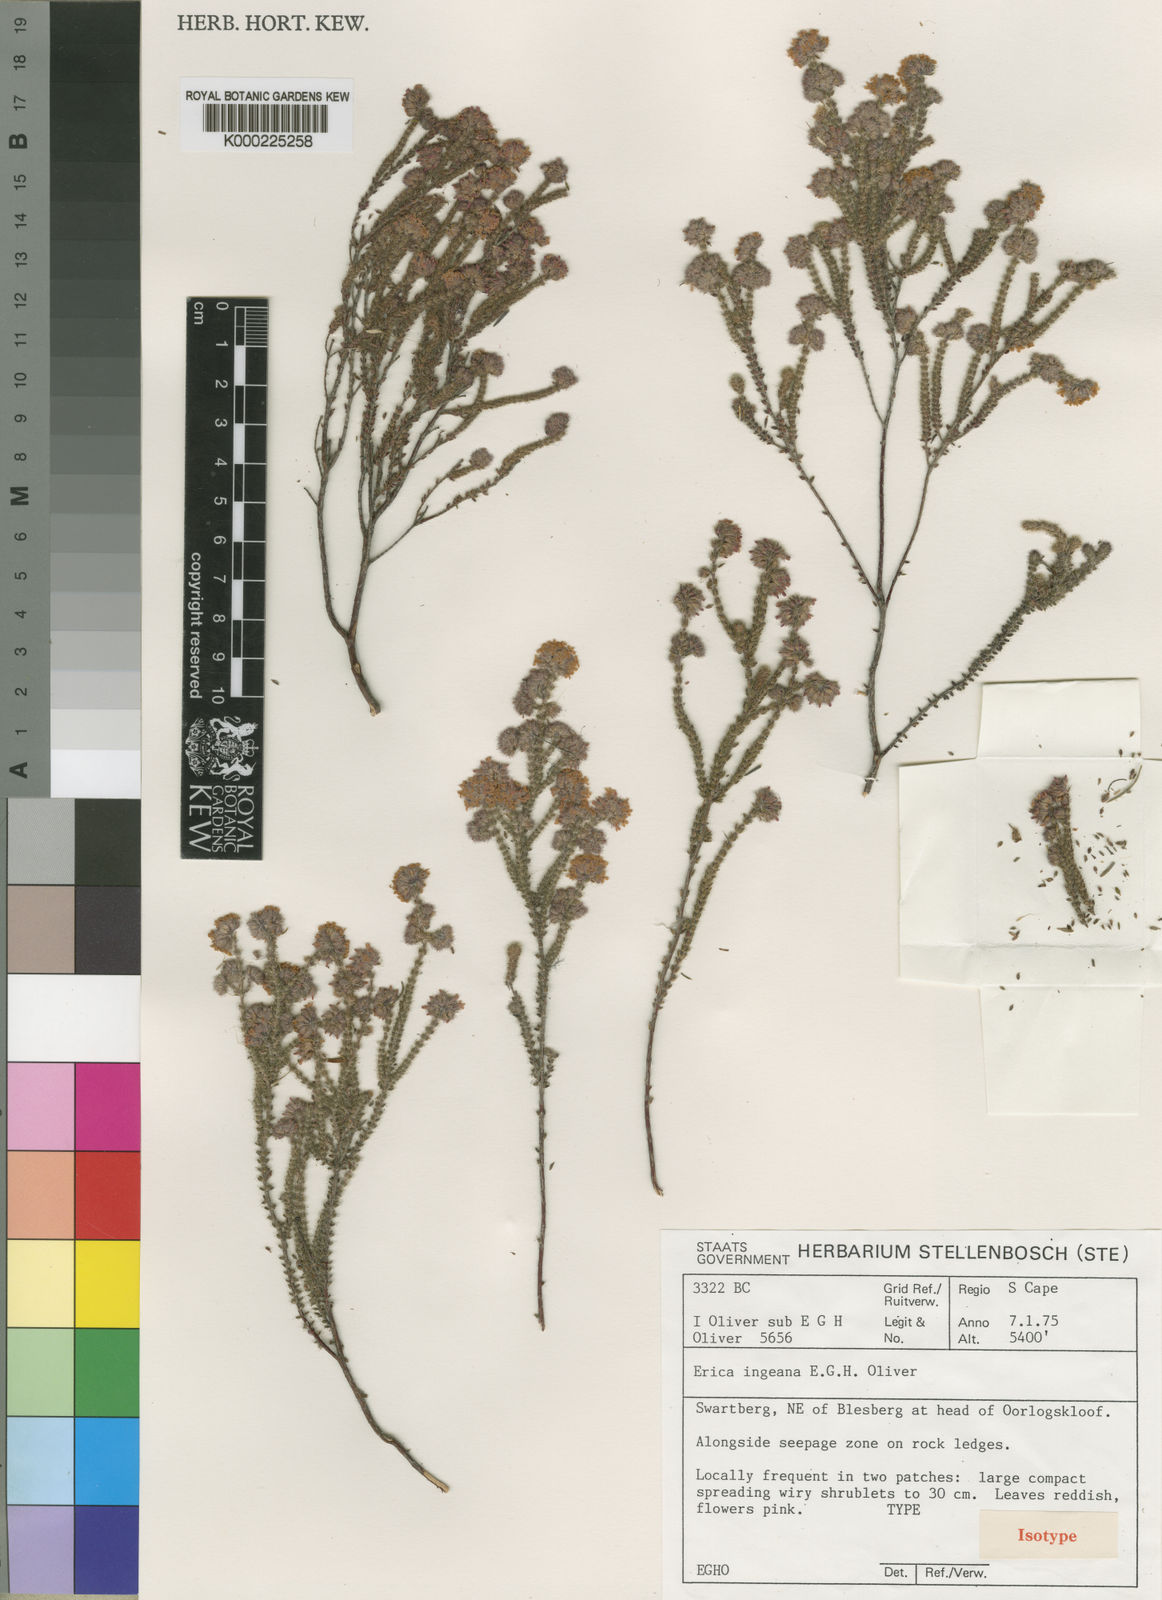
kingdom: Plantae
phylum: Tracheophyta
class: Magnoliopsida
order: Ericales
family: Ericaceae
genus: Erica
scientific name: Erica ingeana
